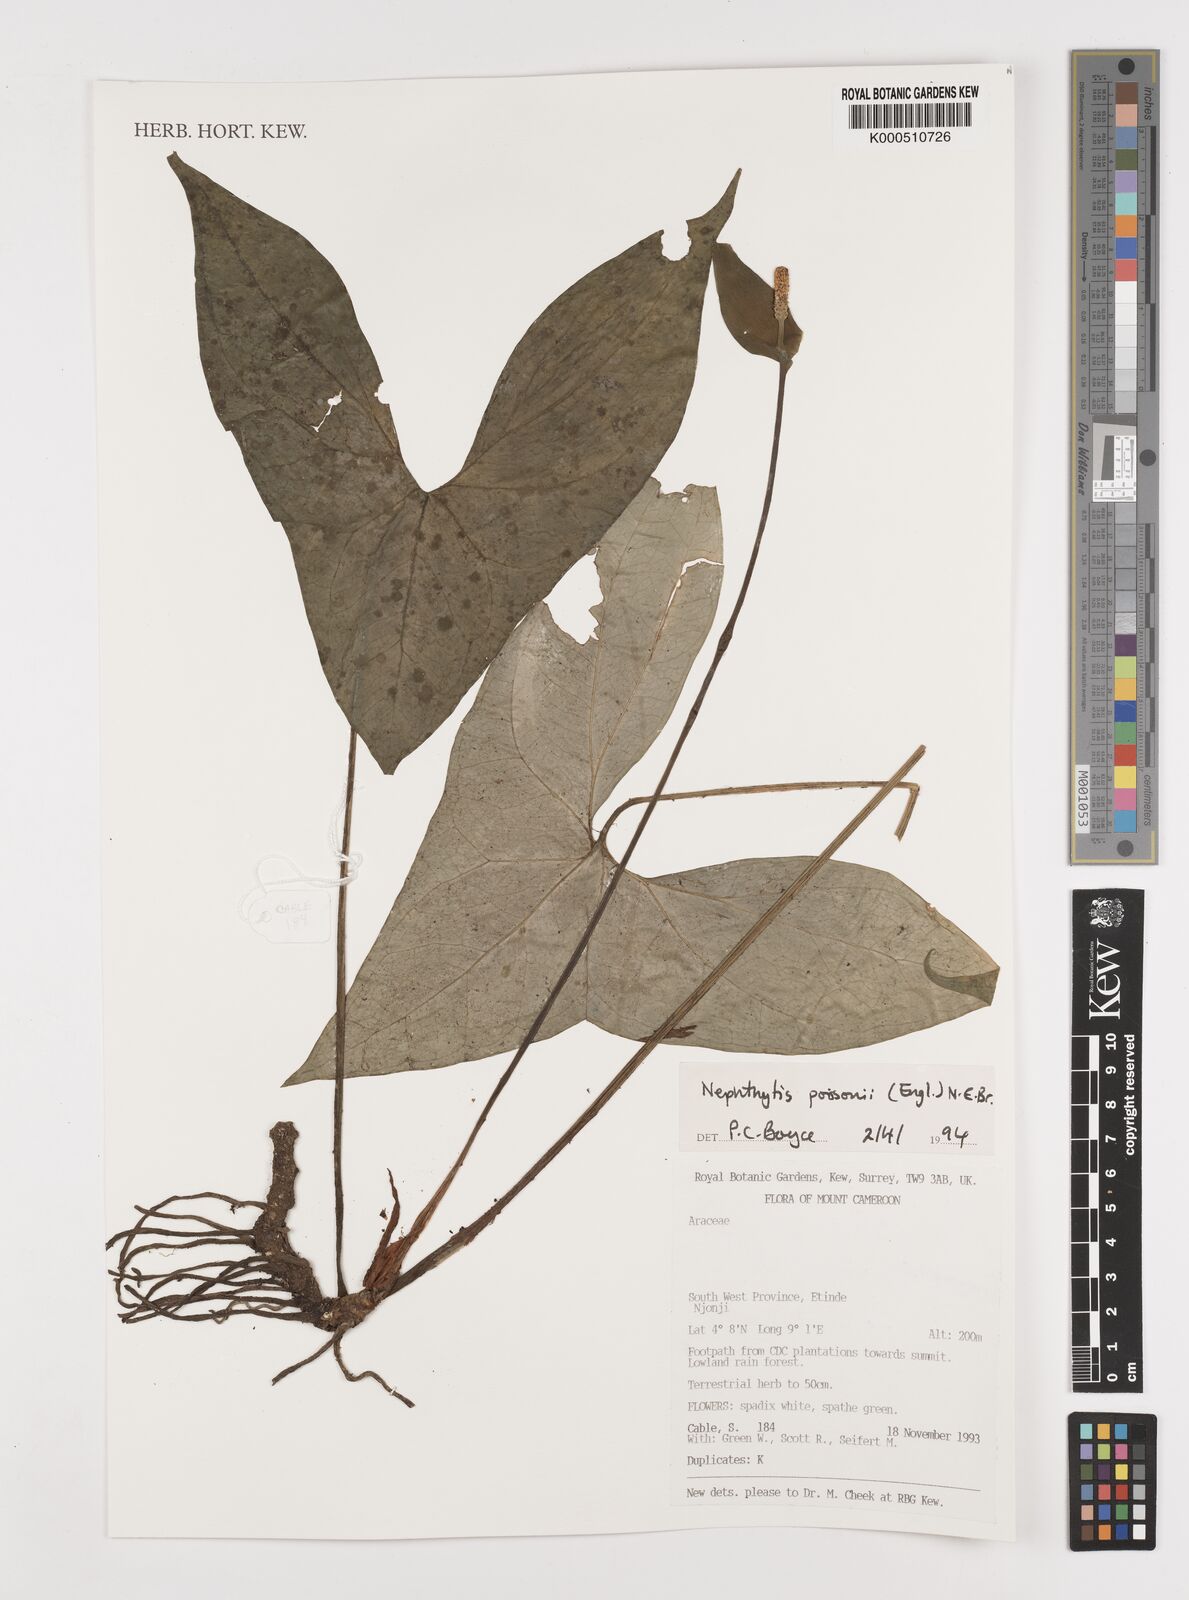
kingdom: Plantae
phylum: Tracheophyta
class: Liliopsida
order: Alismatales
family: Araceae
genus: Nephthytis
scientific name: Nephthytis poissonii
